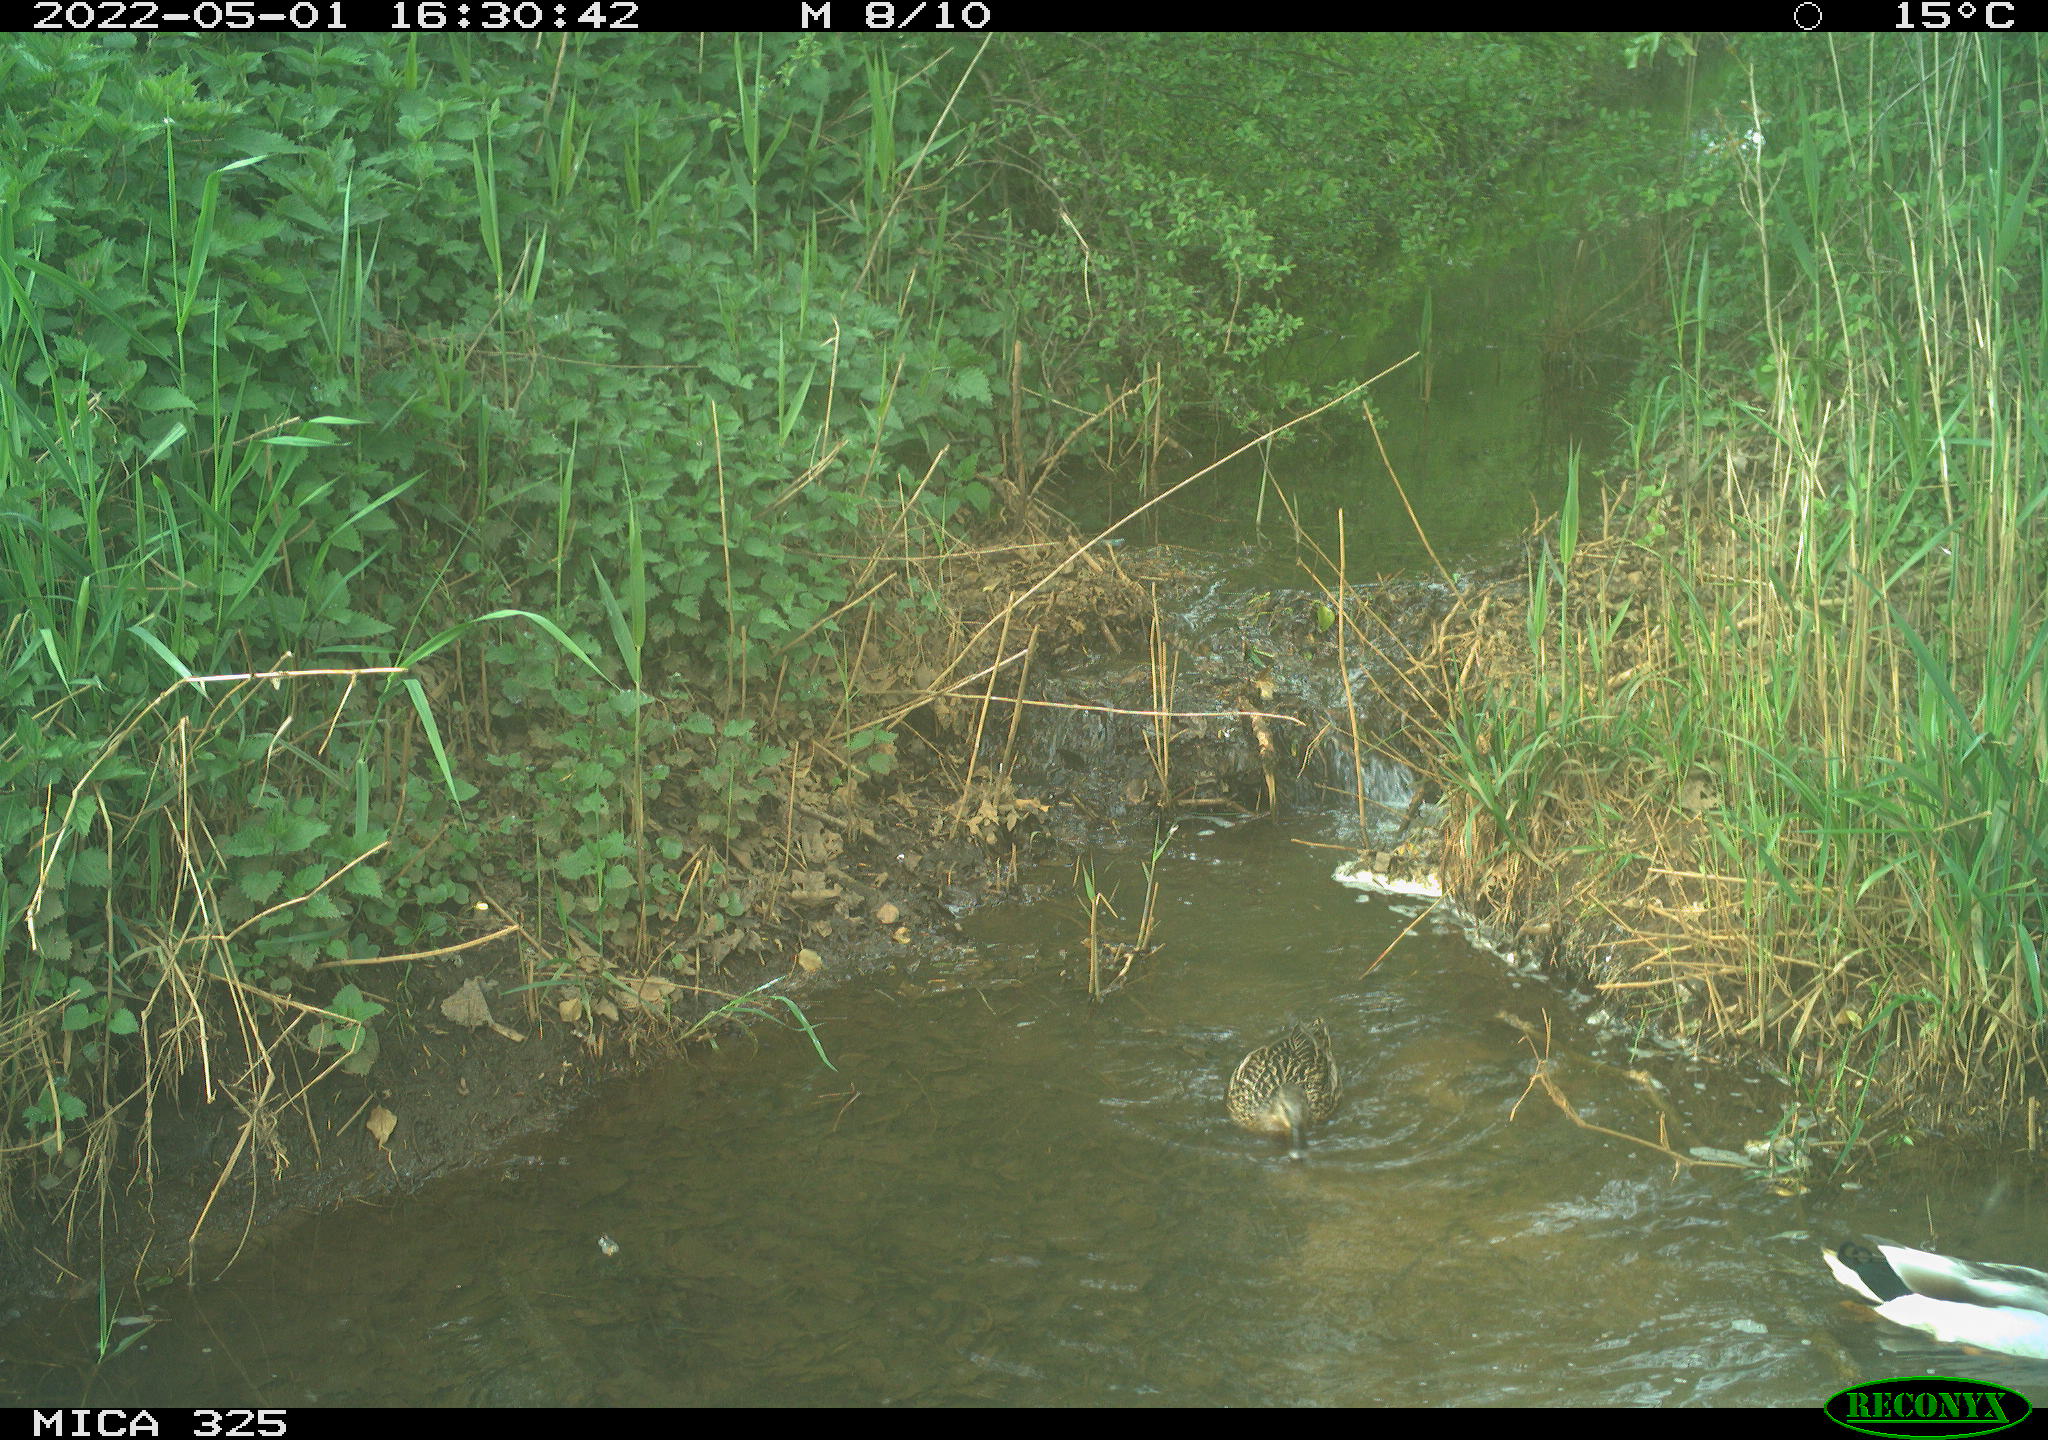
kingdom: Animalia
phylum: Chordata
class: Aves
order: Anseriformes
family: Anatidae
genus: Anas
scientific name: Anas platyrhynchos
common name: Mallard
